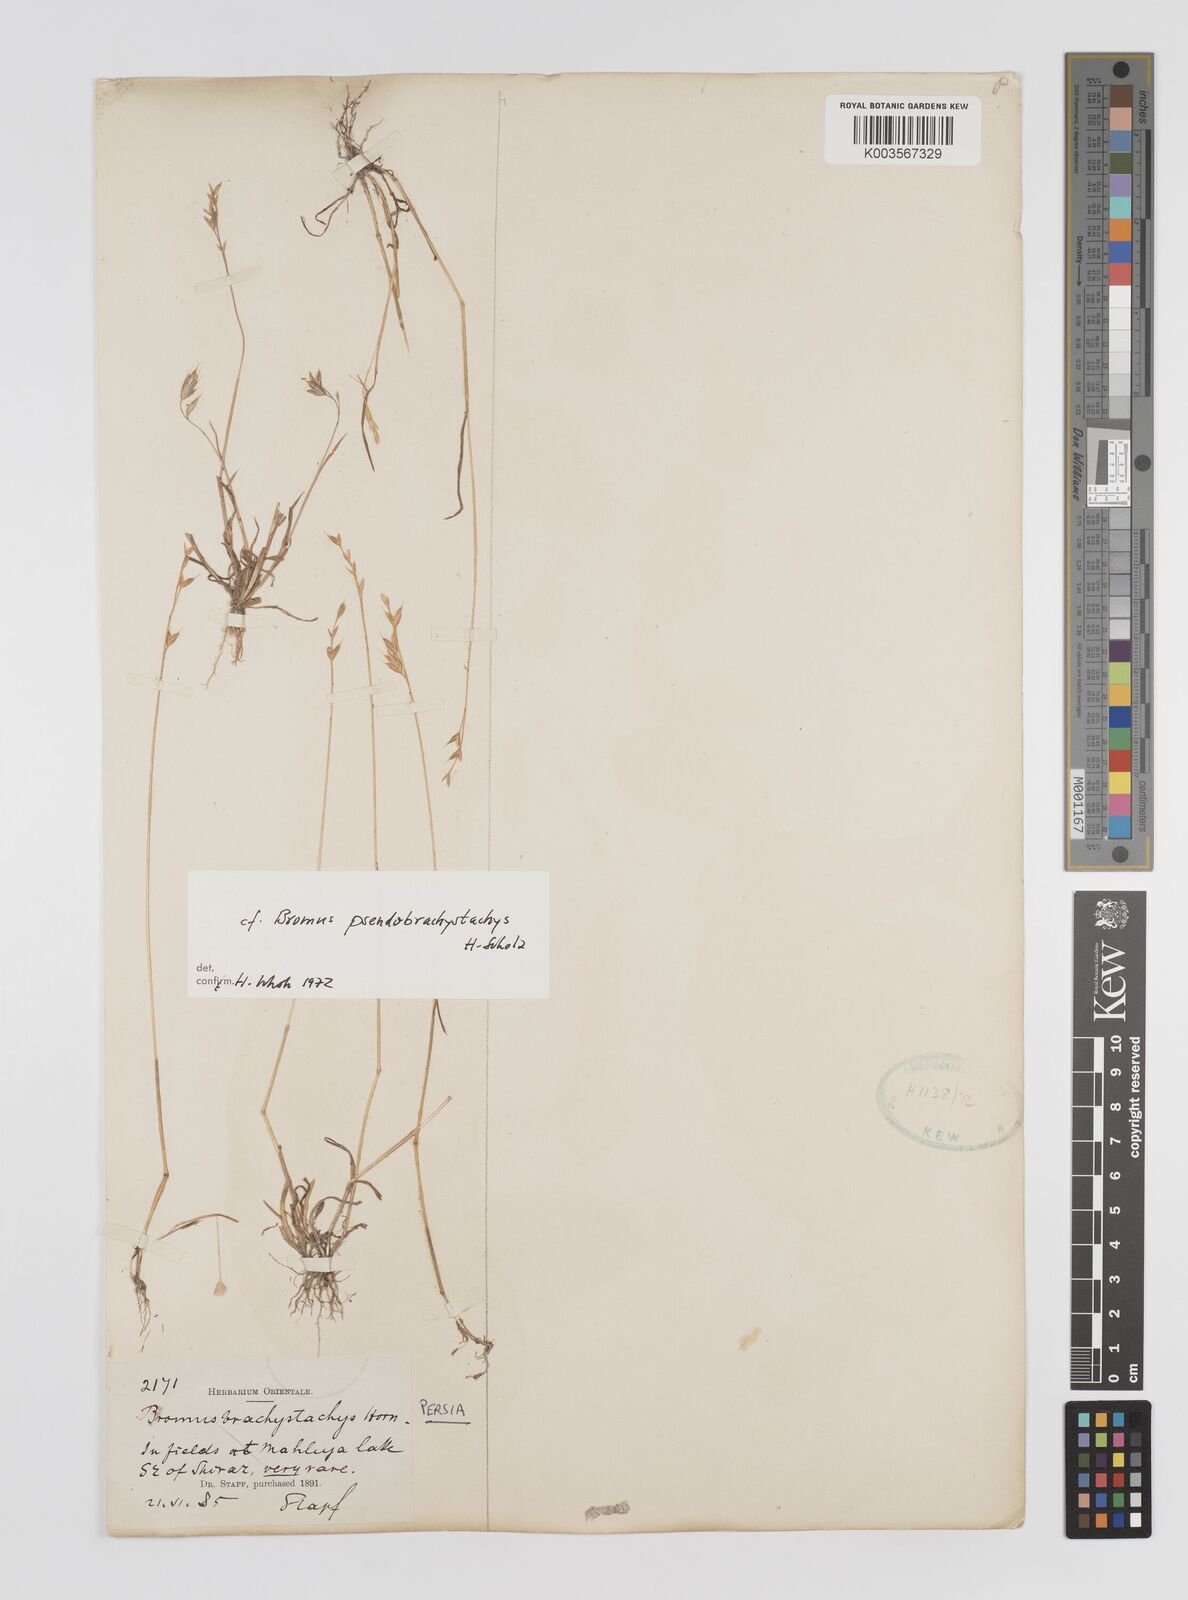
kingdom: Plantae
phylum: Tracheophyta
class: Liliopsida
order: Poales
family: Poaceae
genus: Bromus
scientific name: Bromus pseudobrachystachys
